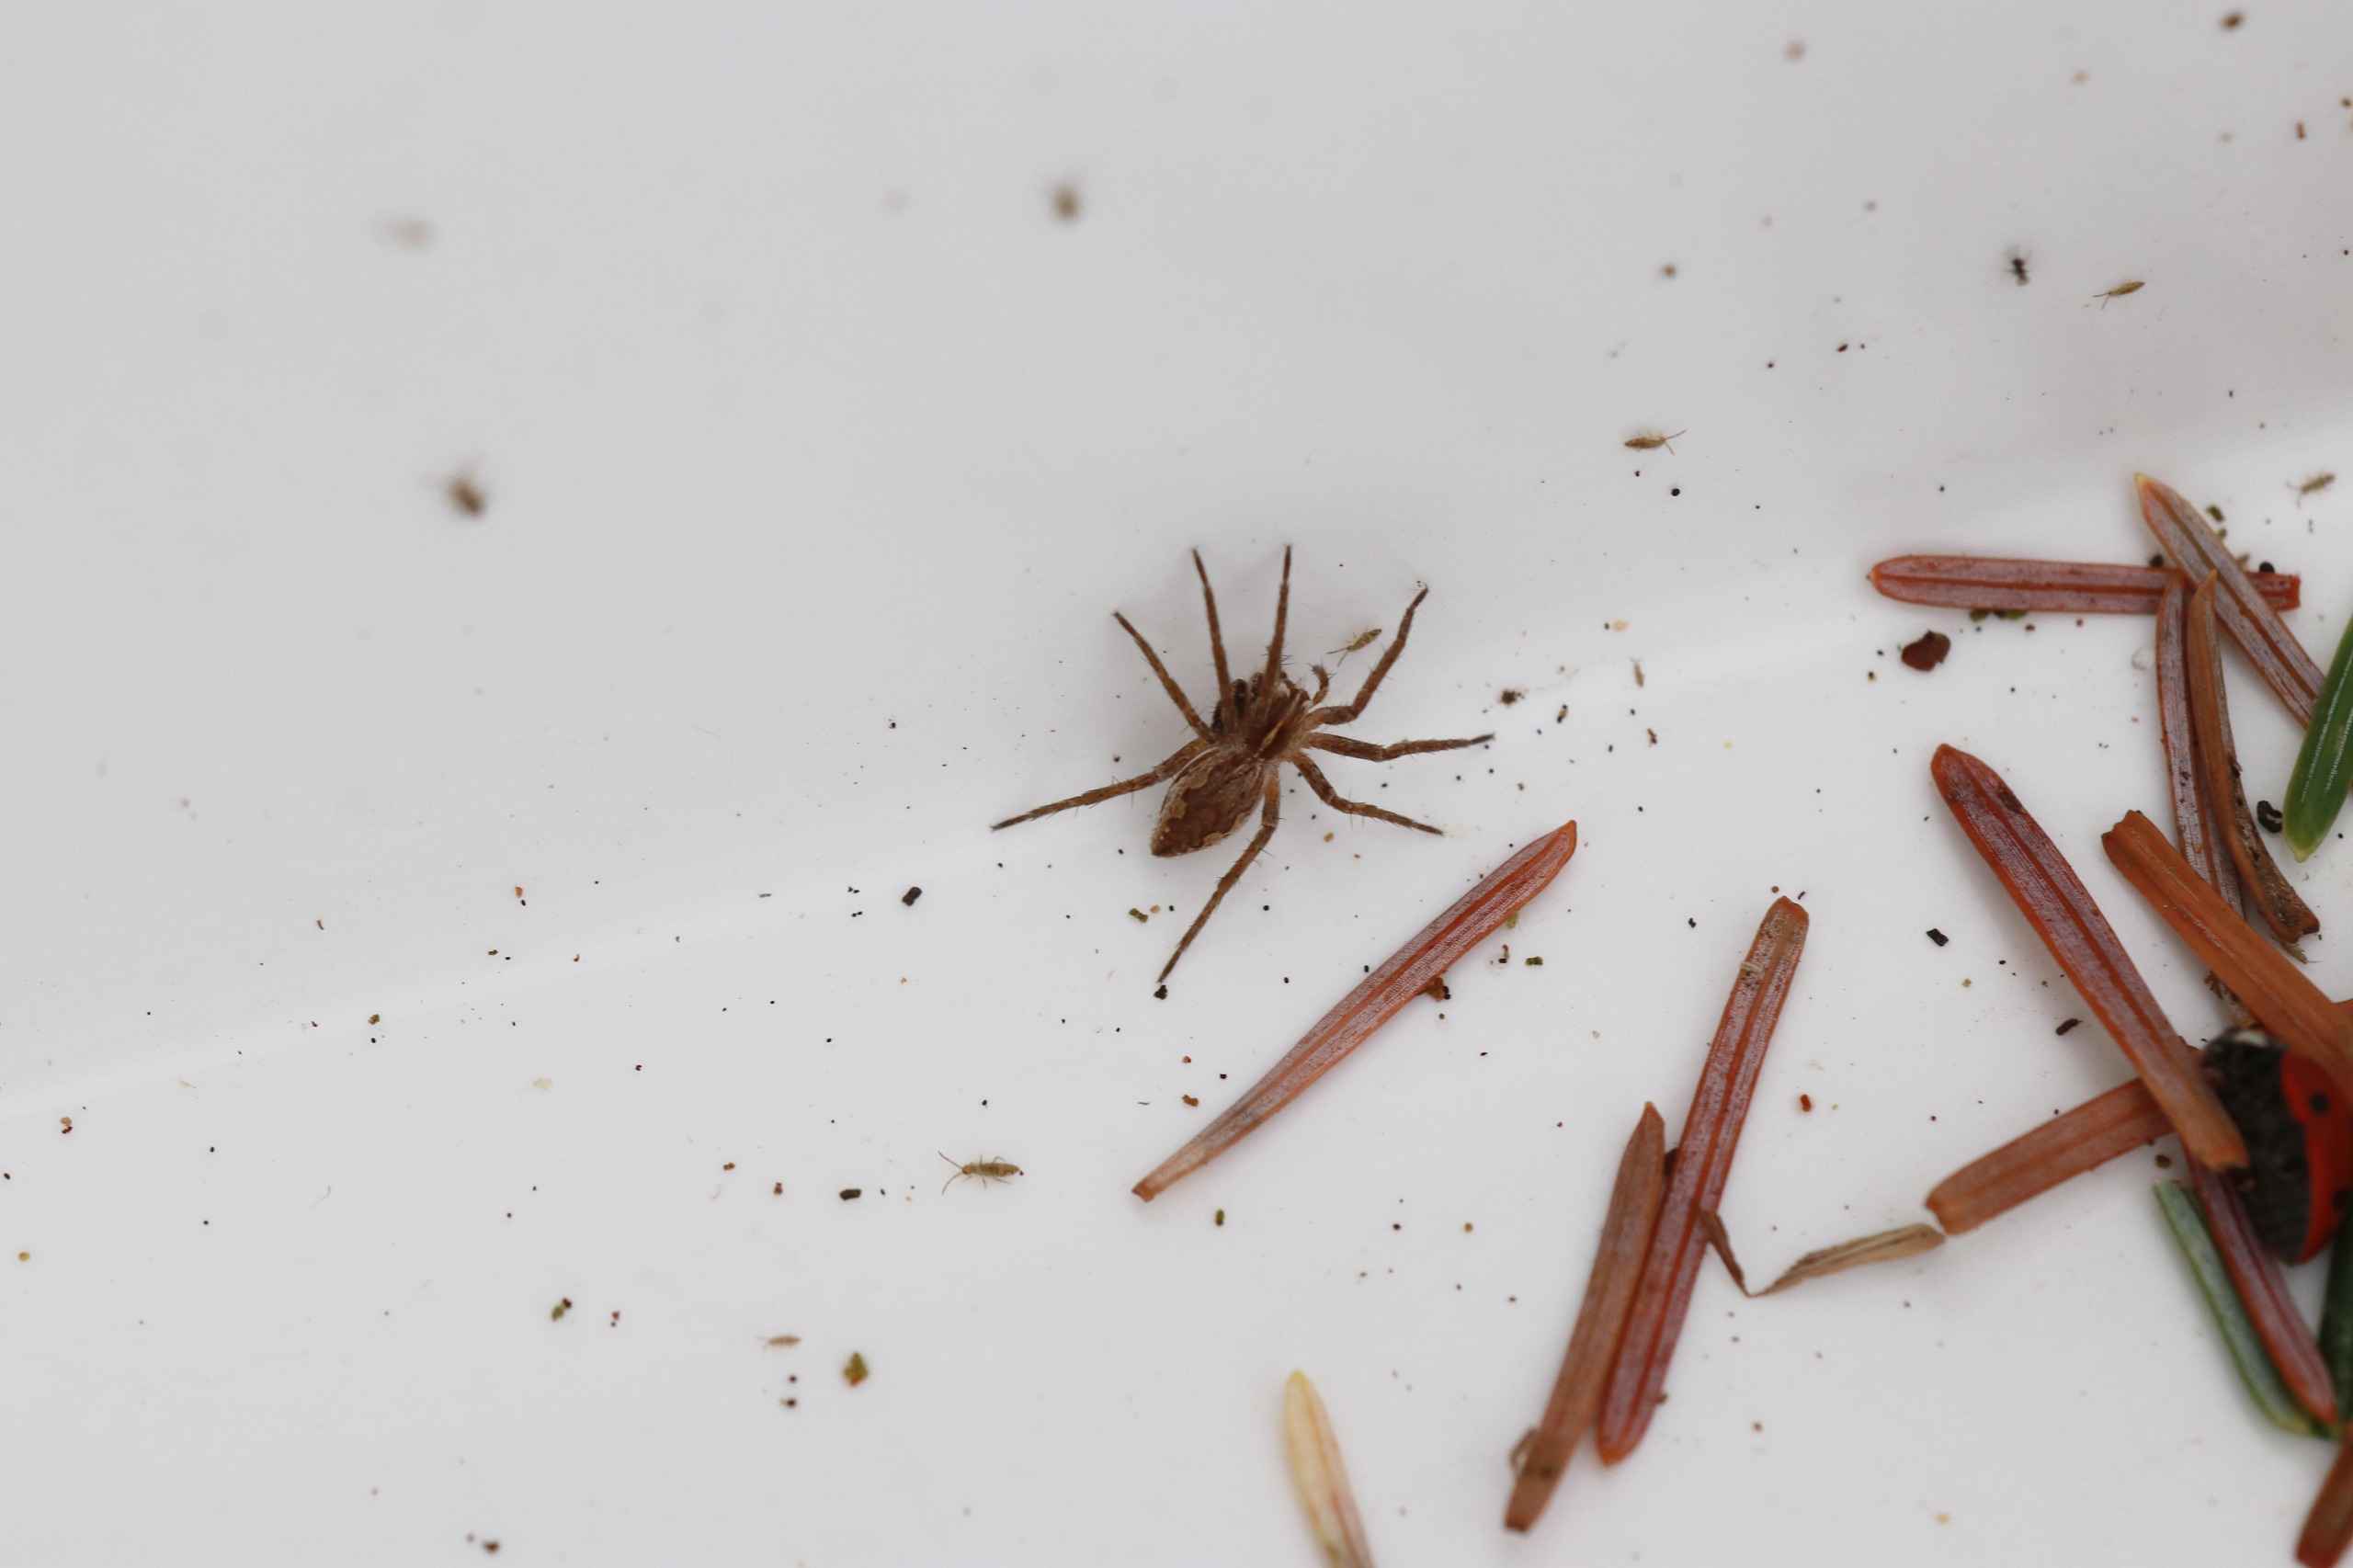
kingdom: Animalia
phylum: Arthropoda
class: Arachnida
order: Araneae
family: Pisauridae
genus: Pisaura
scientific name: Pisaura mirabilis
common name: Almindelig rovedderkop
